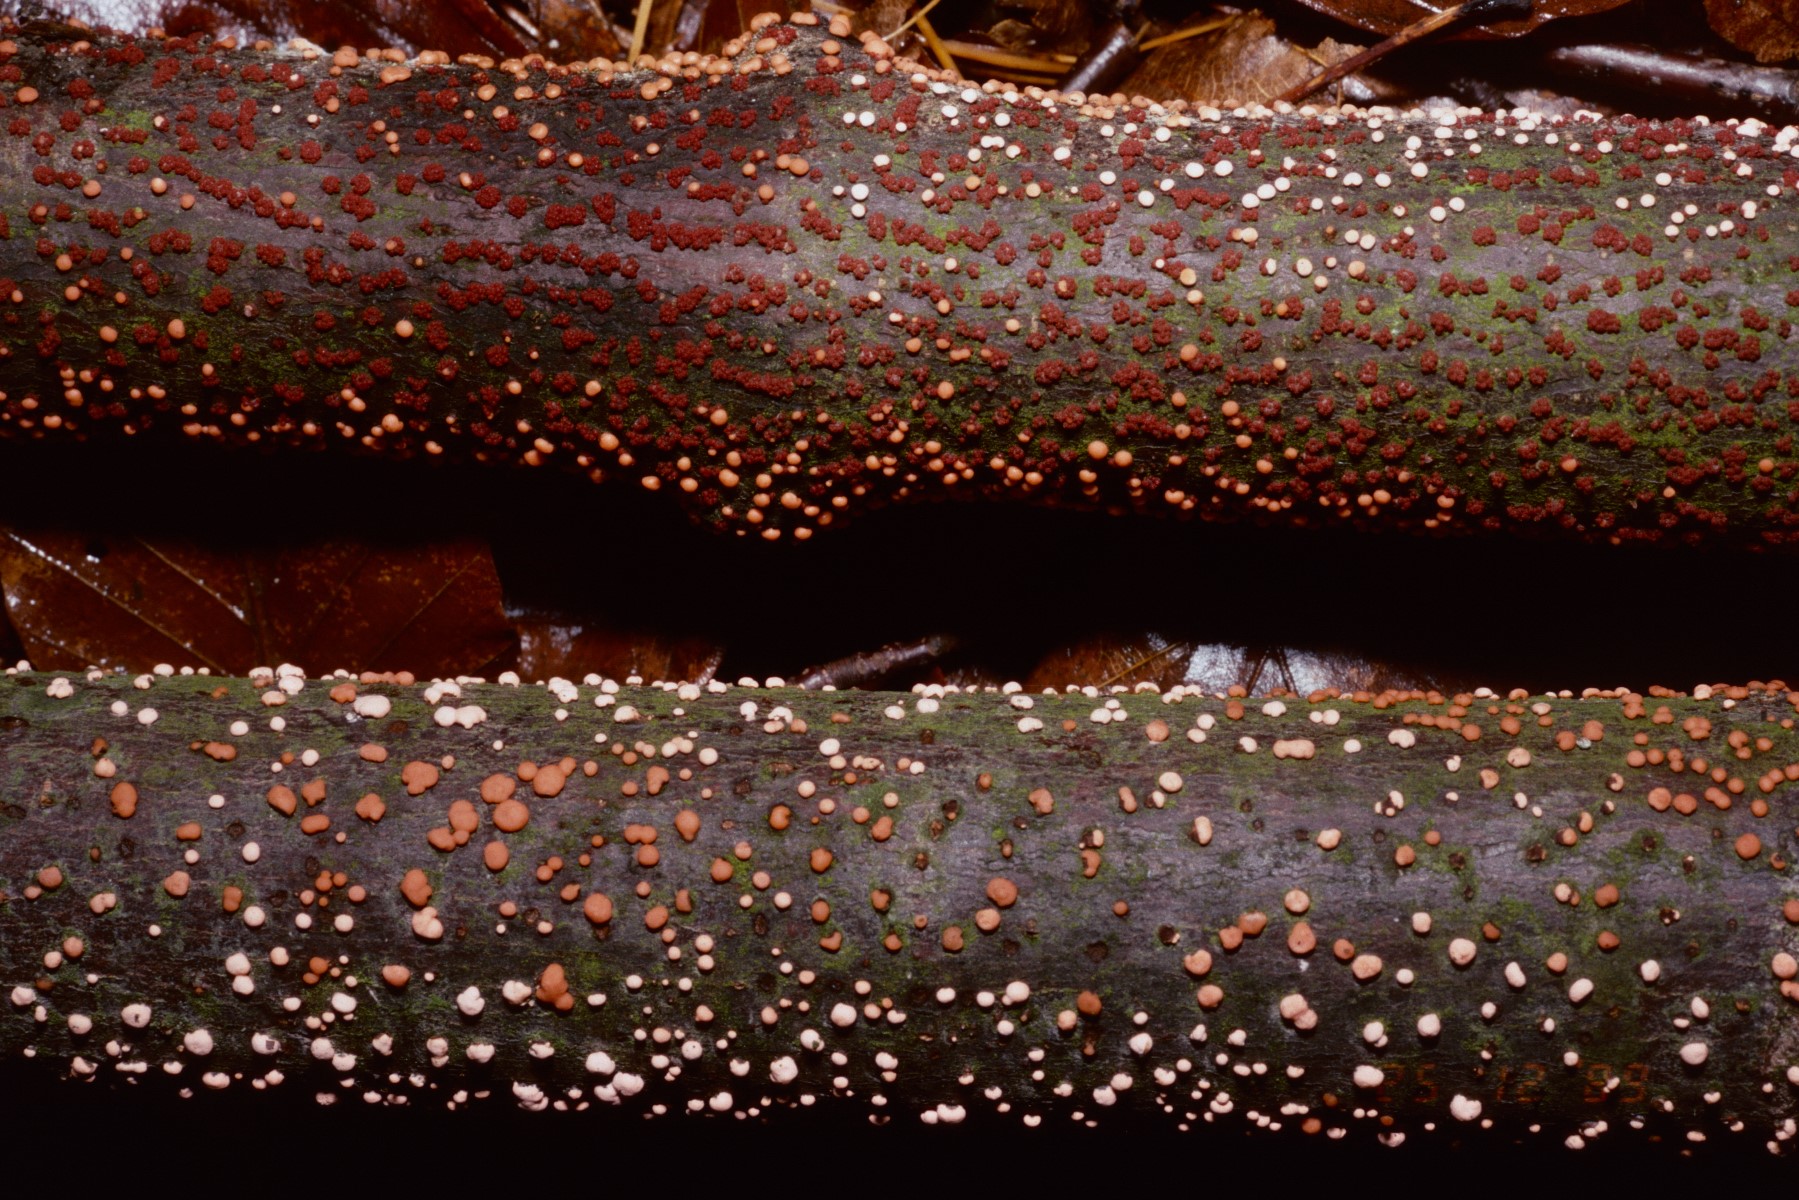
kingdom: Fungi
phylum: Ascomycota
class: Sordariomycetes
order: Hypocreales
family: Nectriaceae
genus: Nectria
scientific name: Nectria cinnabarina
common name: almindelig cinnobersvamp
